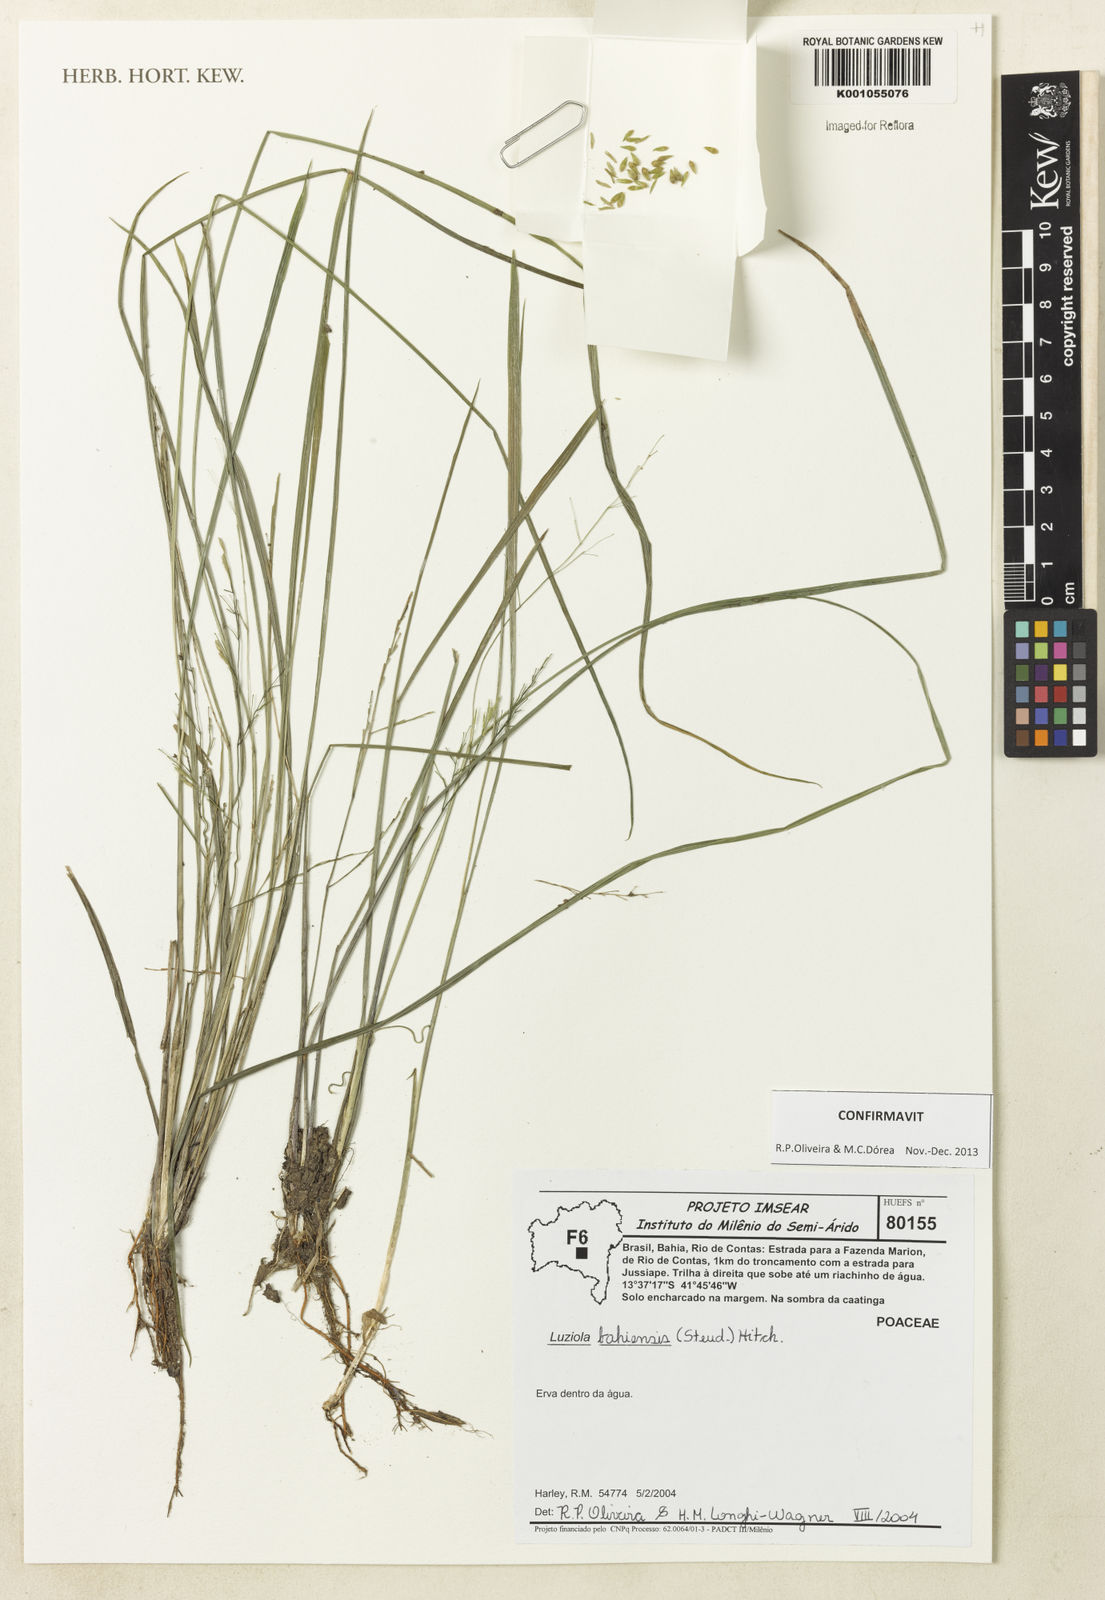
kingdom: Plantae
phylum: Tracheophyta
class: Liliopsida
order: Poales
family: Poaceae
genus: Luziola
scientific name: Luziola bahiensis
